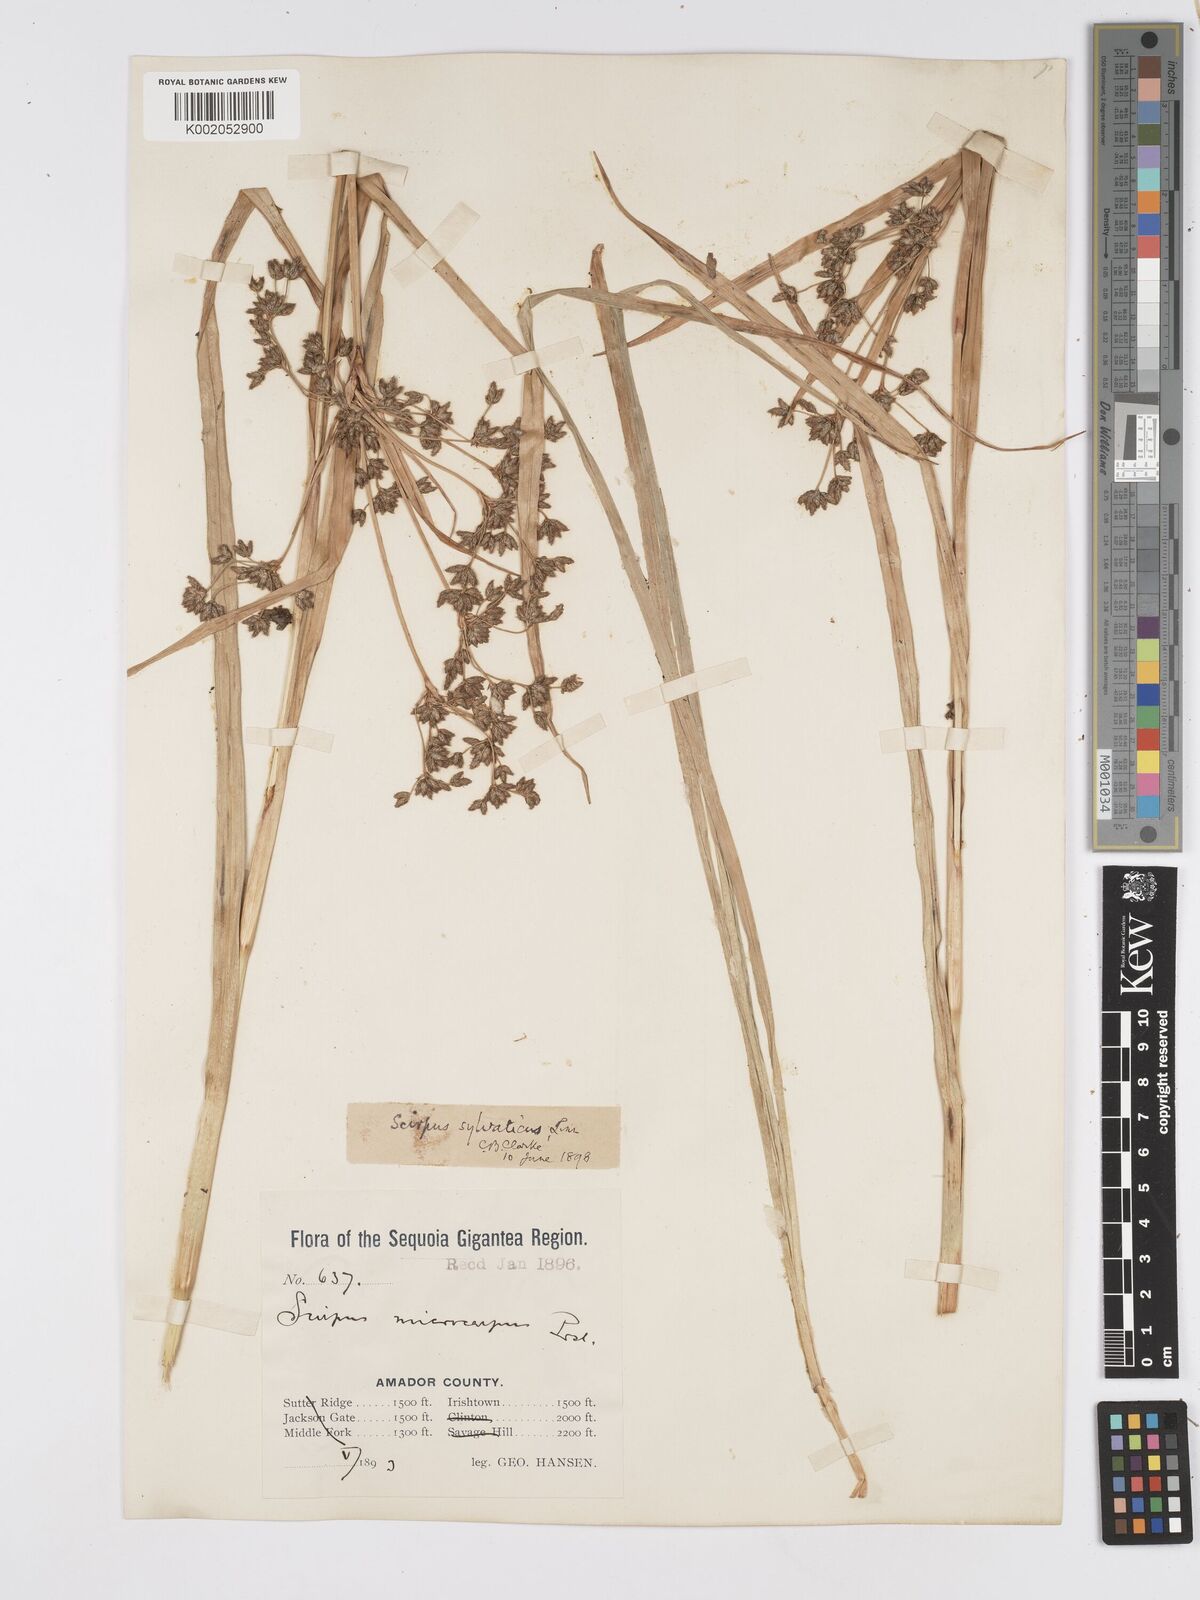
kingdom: Plantae
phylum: Tracheophyta
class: Liliopsida
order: Poales
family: Cyperaceae
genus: Scirpus
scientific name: Scirpus sylvaticus
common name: Wood club-rush
